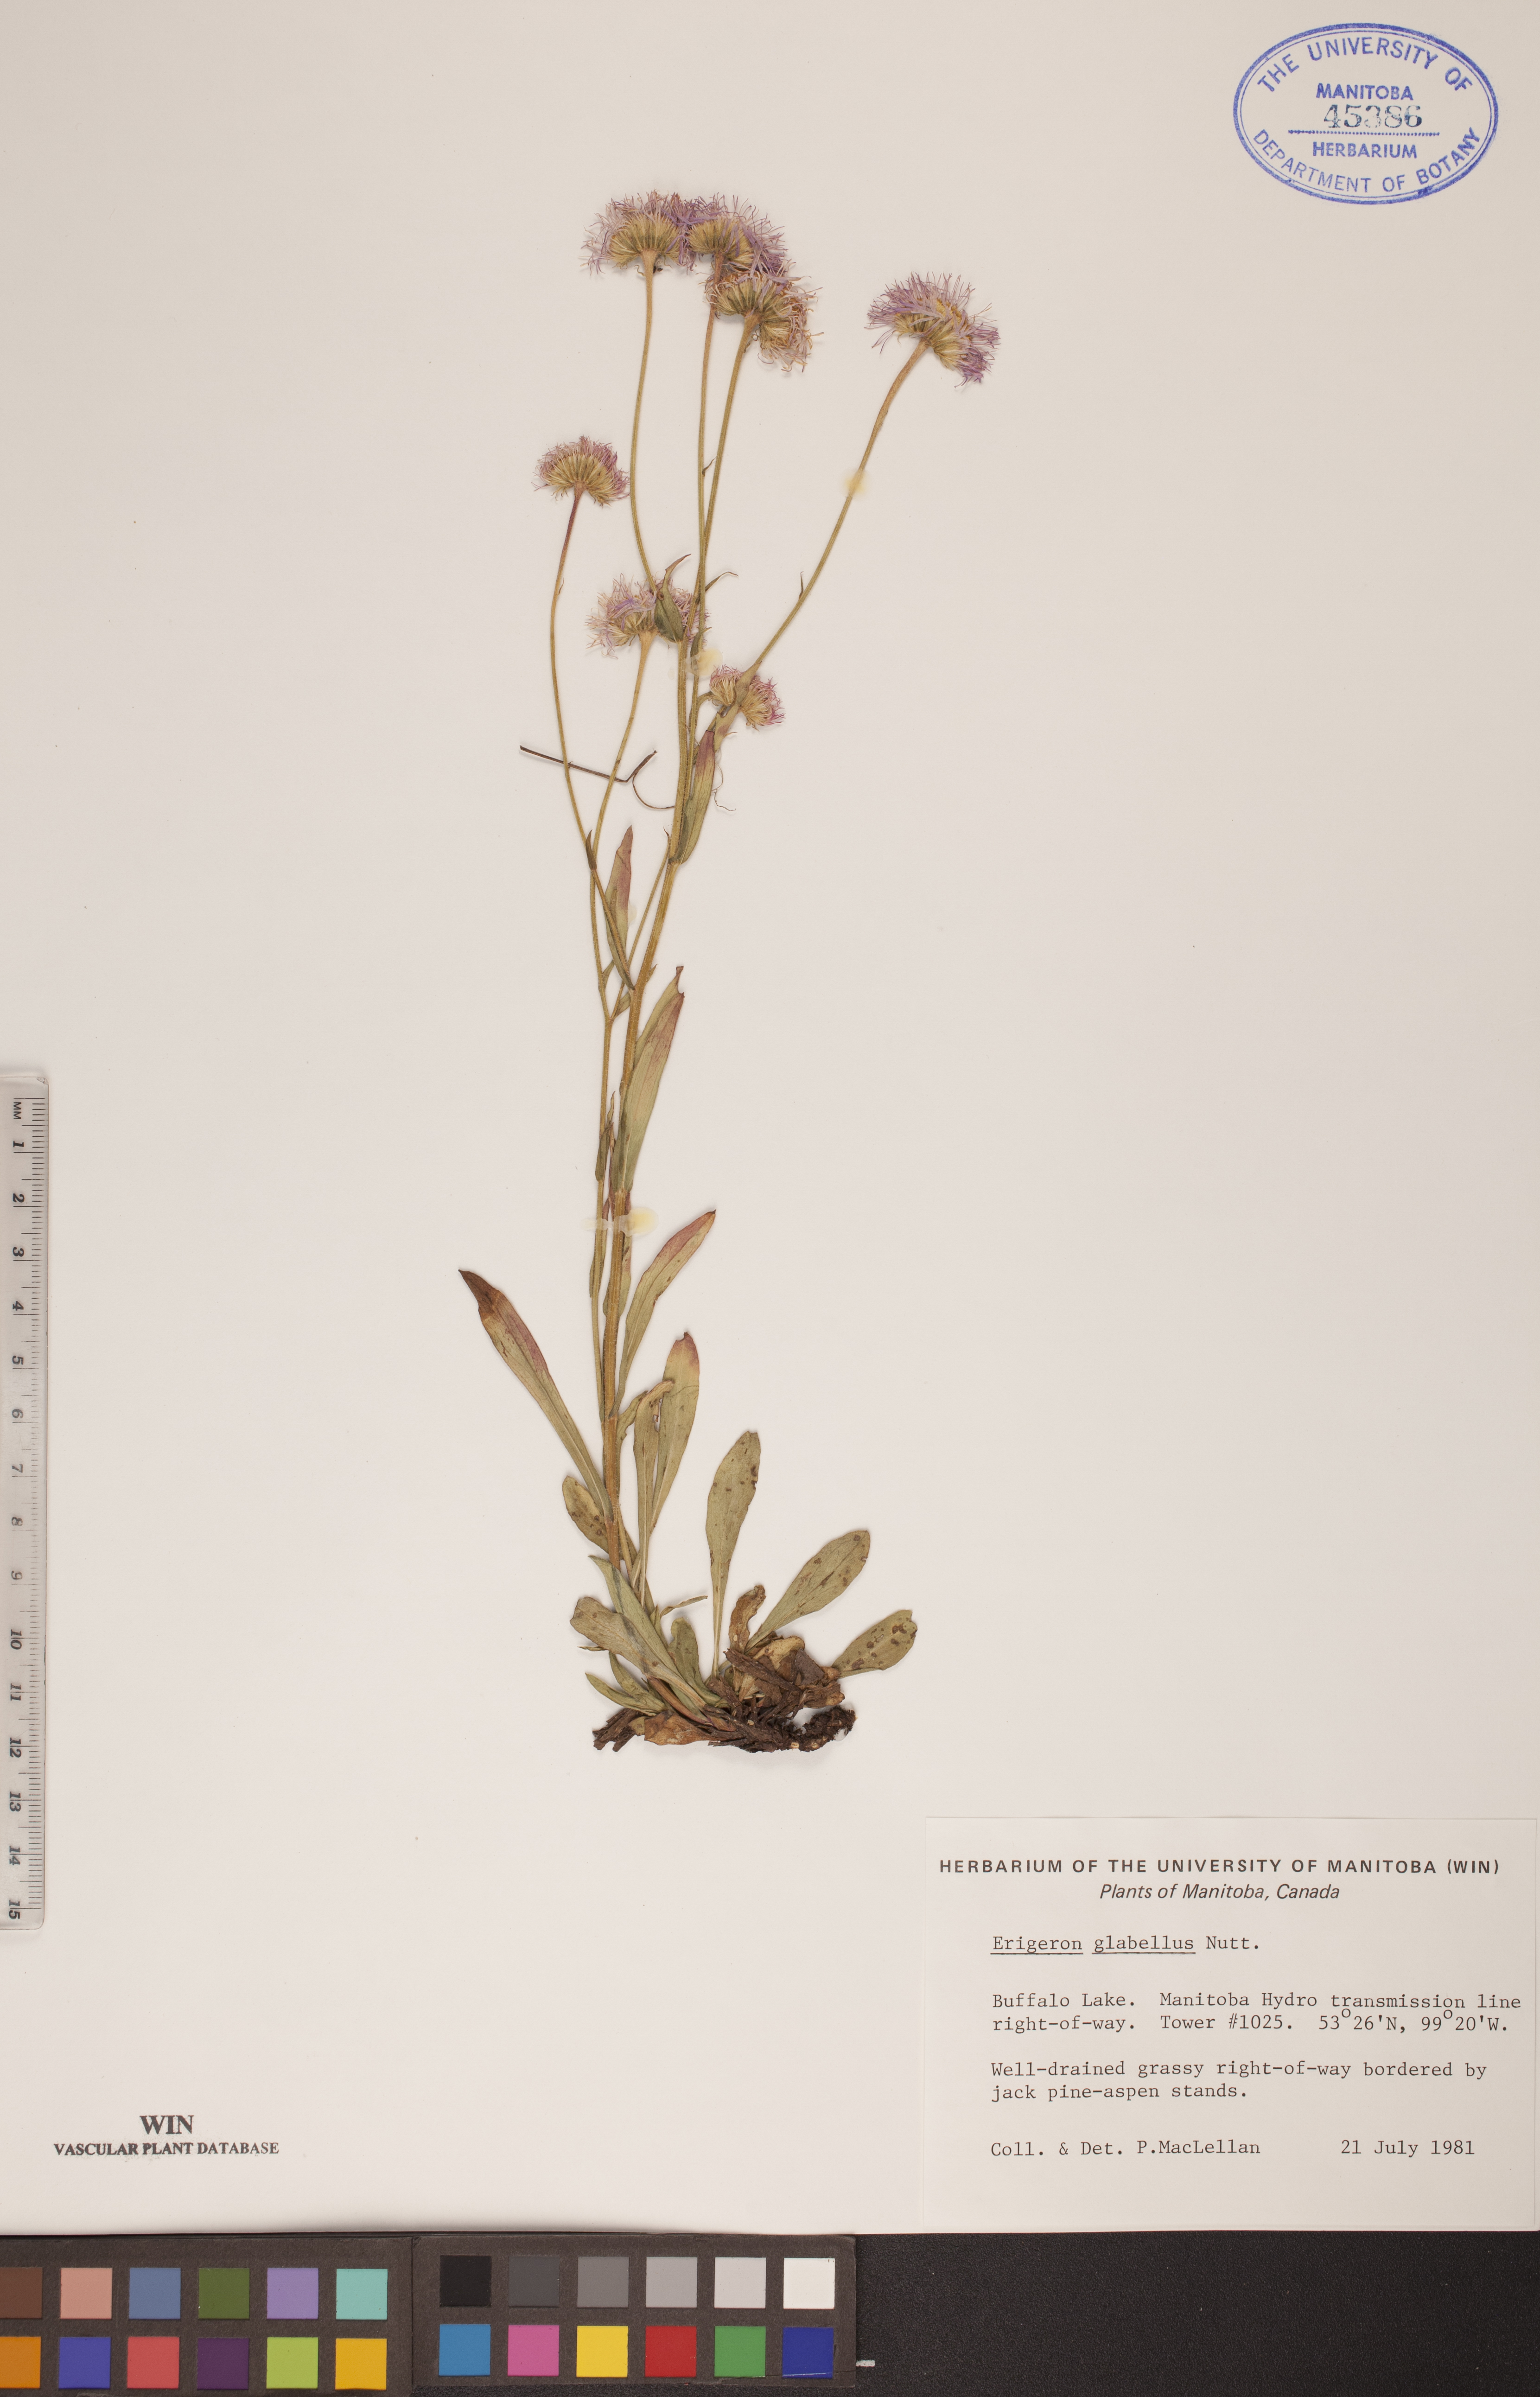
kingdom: Plantae
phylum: Tracheophyta
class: Magnoliopsida
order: Asterales
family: Asteraceae
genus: Erigeron
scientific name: Erigeron glabellus
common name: Smooth fleabane
